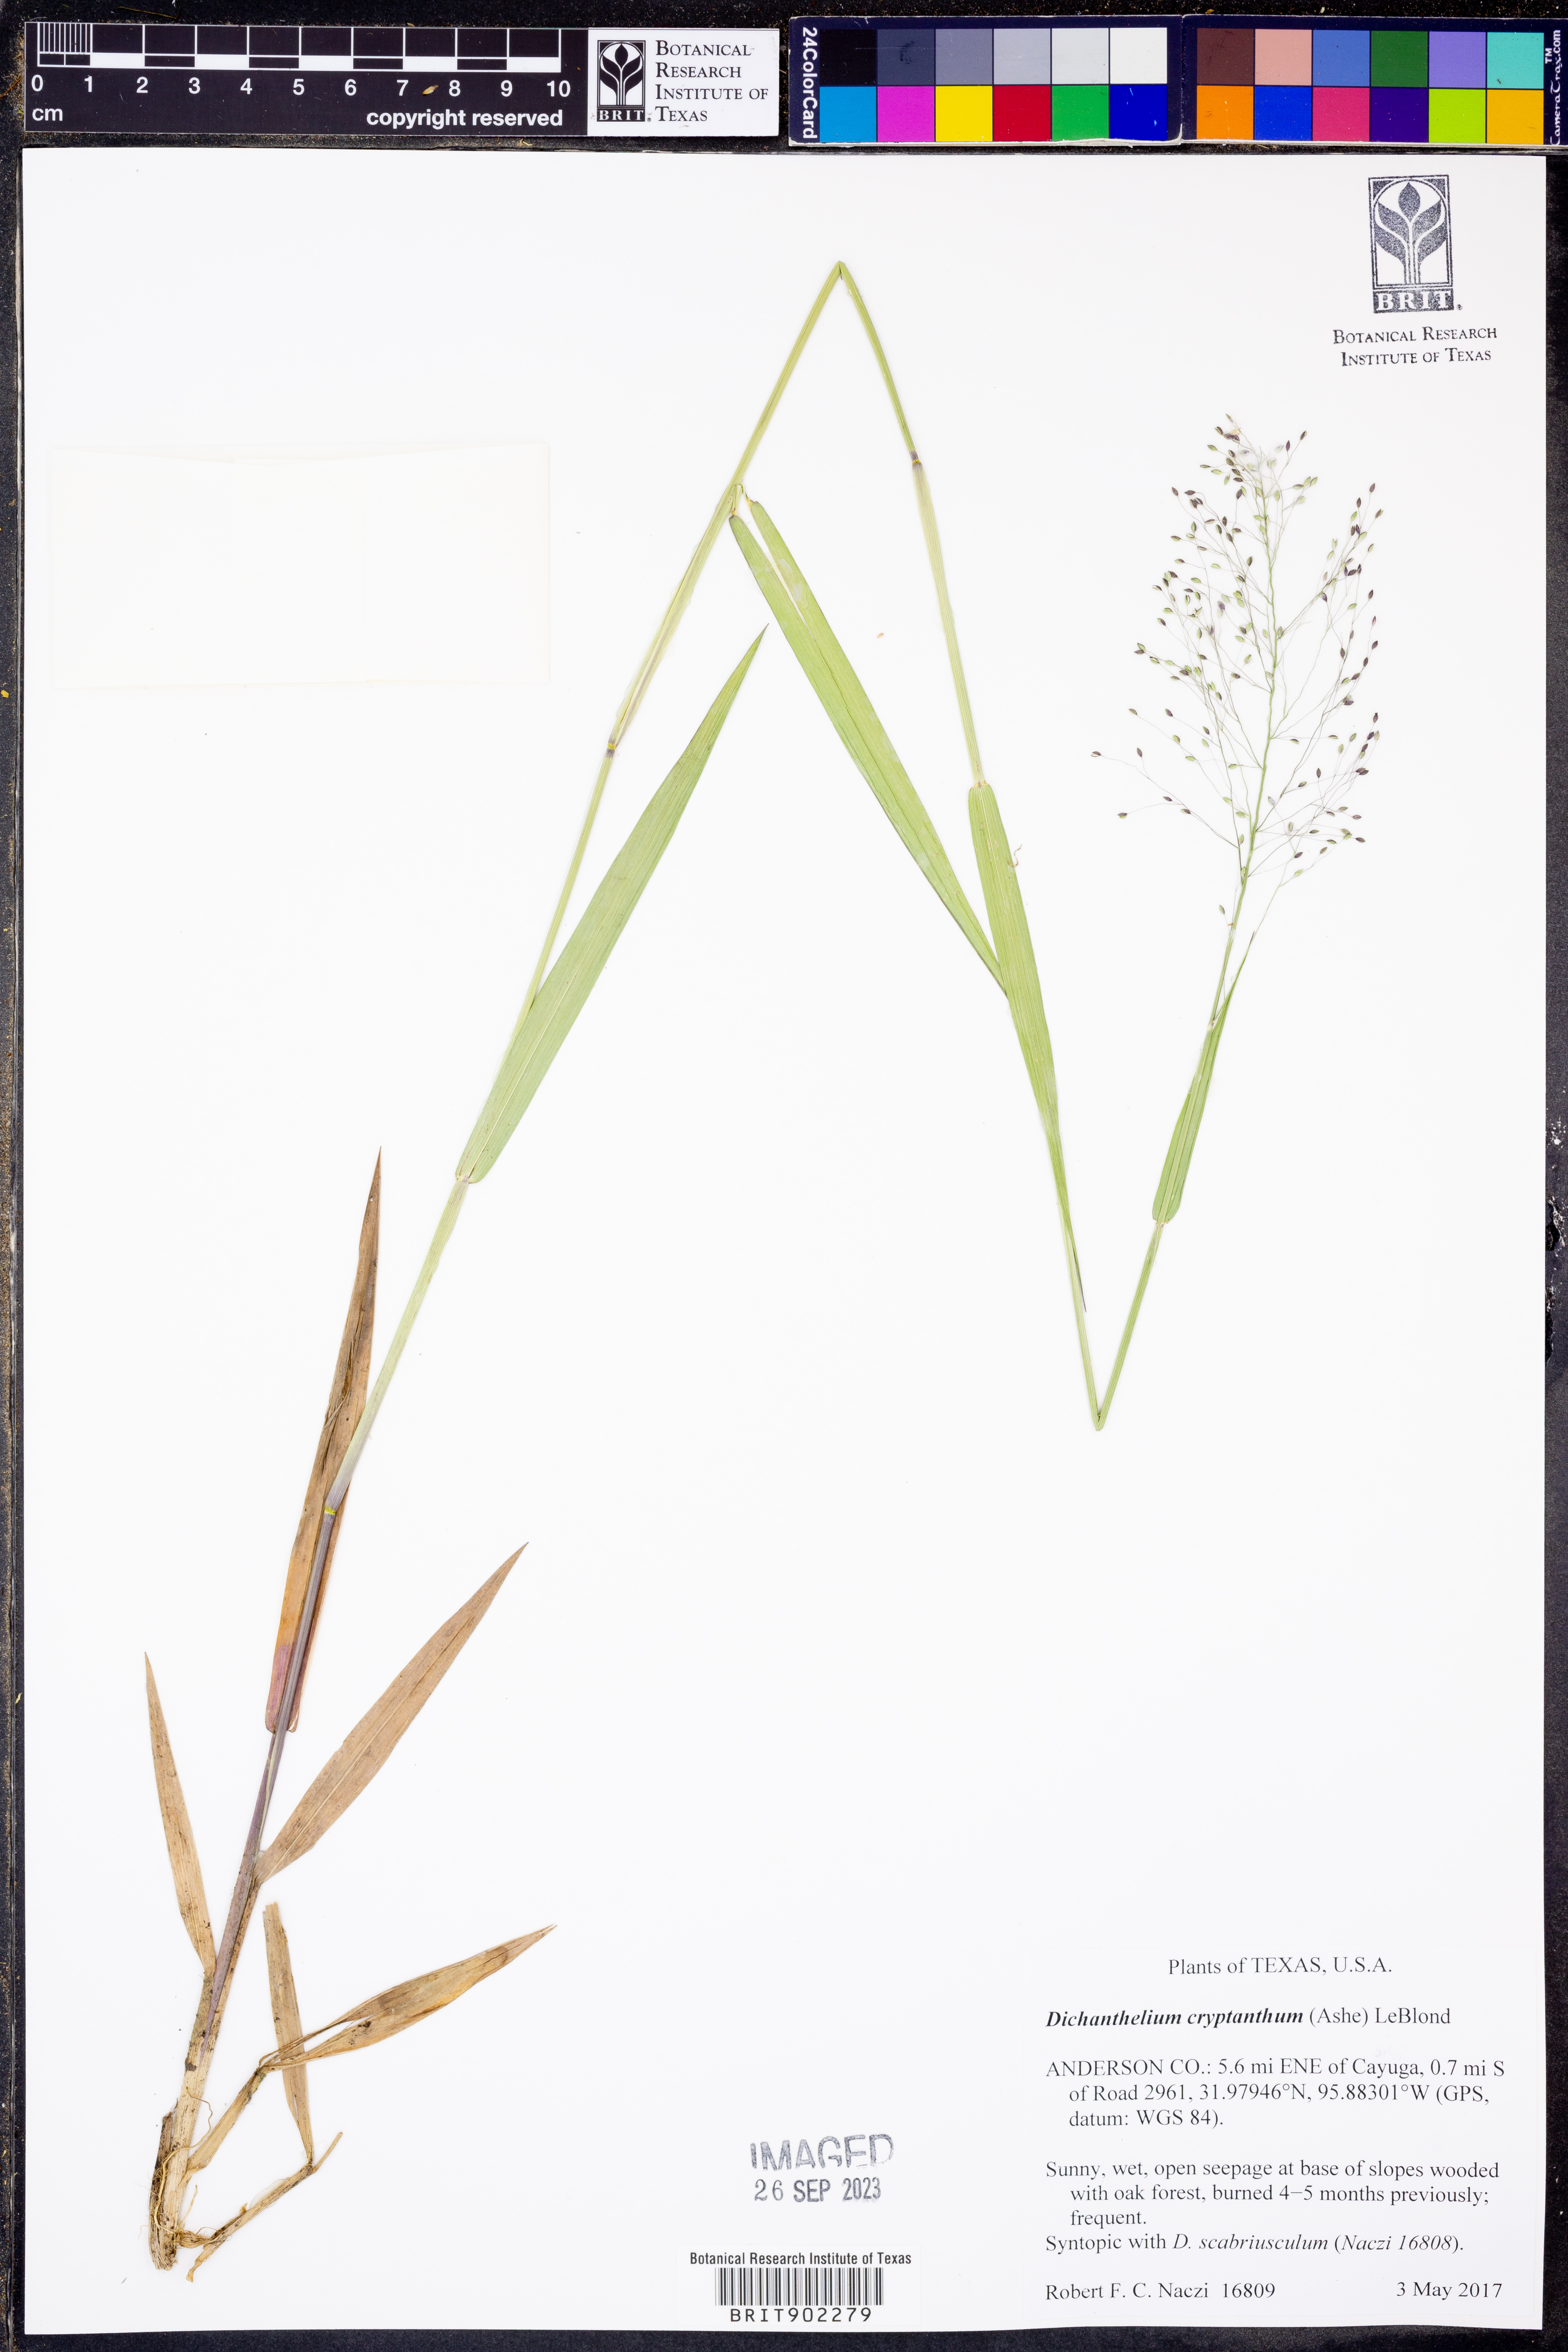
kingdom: Plantae
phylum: Tracheophyta
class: Liliopsida
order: Poales
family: Poaceae
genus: Dichanthelium
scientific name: Dichanthelium cryptanthum
